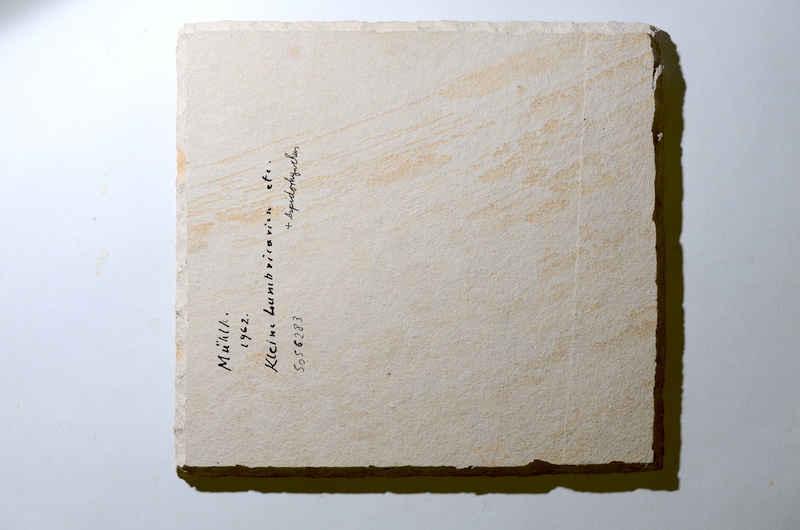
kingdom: Animalia
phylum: Chordata
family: Aspidorhynchidae
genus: Aspidorhynchus
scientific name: Aspidorhynchus
